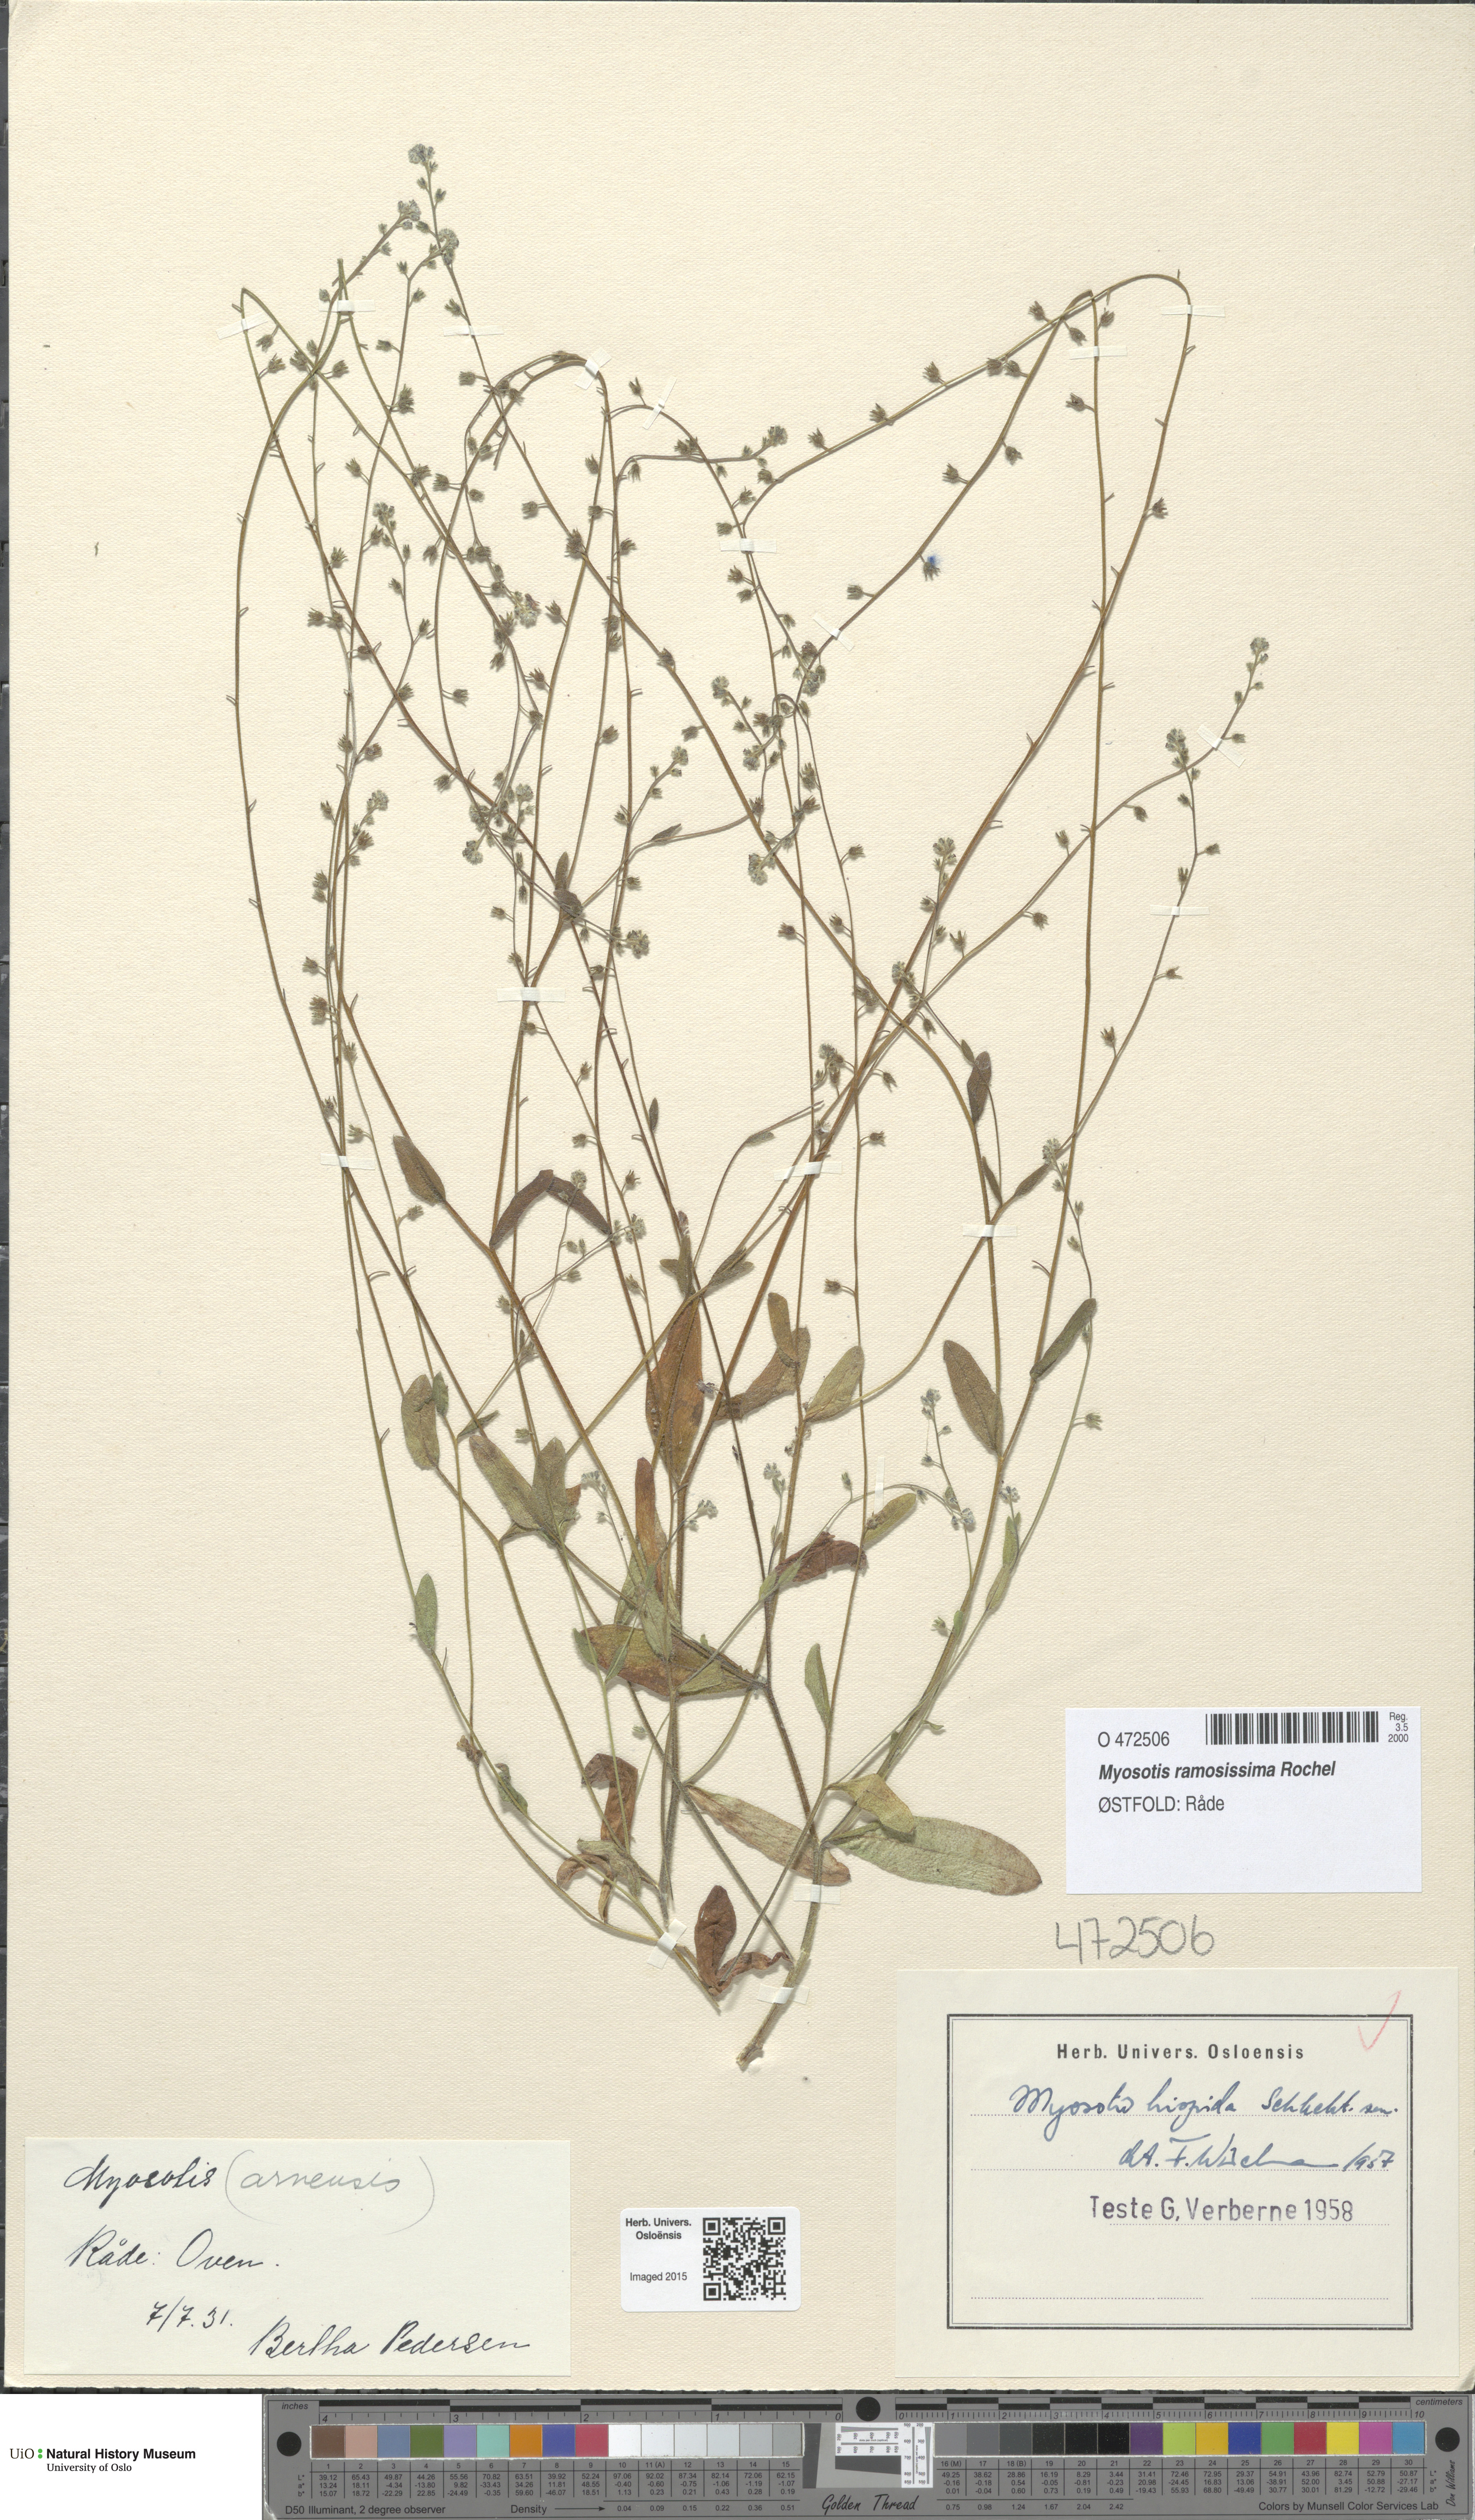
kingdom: Plantae
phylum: Tracheophyta
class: Magnoliopsida
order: Boraginales
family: Boraginaceae
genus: Myosotis
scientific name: Myosotis ramosissima
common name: Early forget-me-not
